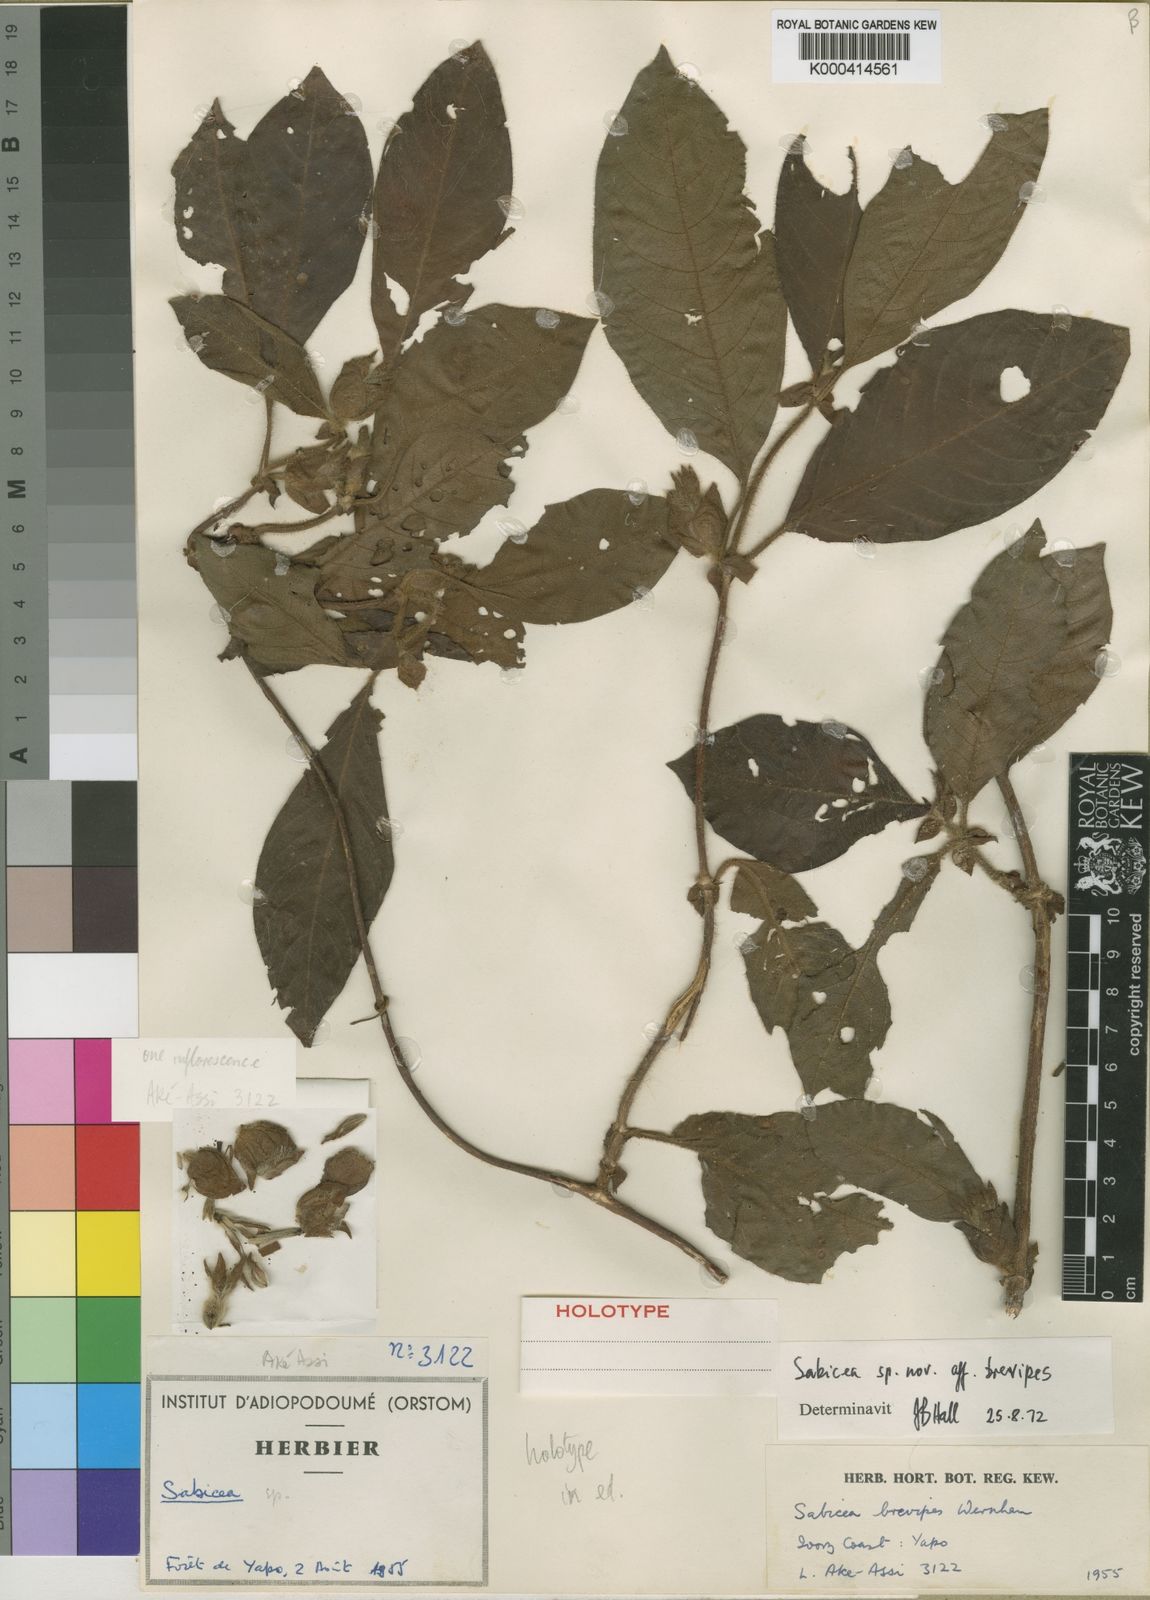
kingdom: Plantae
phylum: Tracheophyta
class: Magnoliopsida
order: Gentianales
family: Rubiaceae
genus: Sabicea
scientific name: Sabicea solitaria
